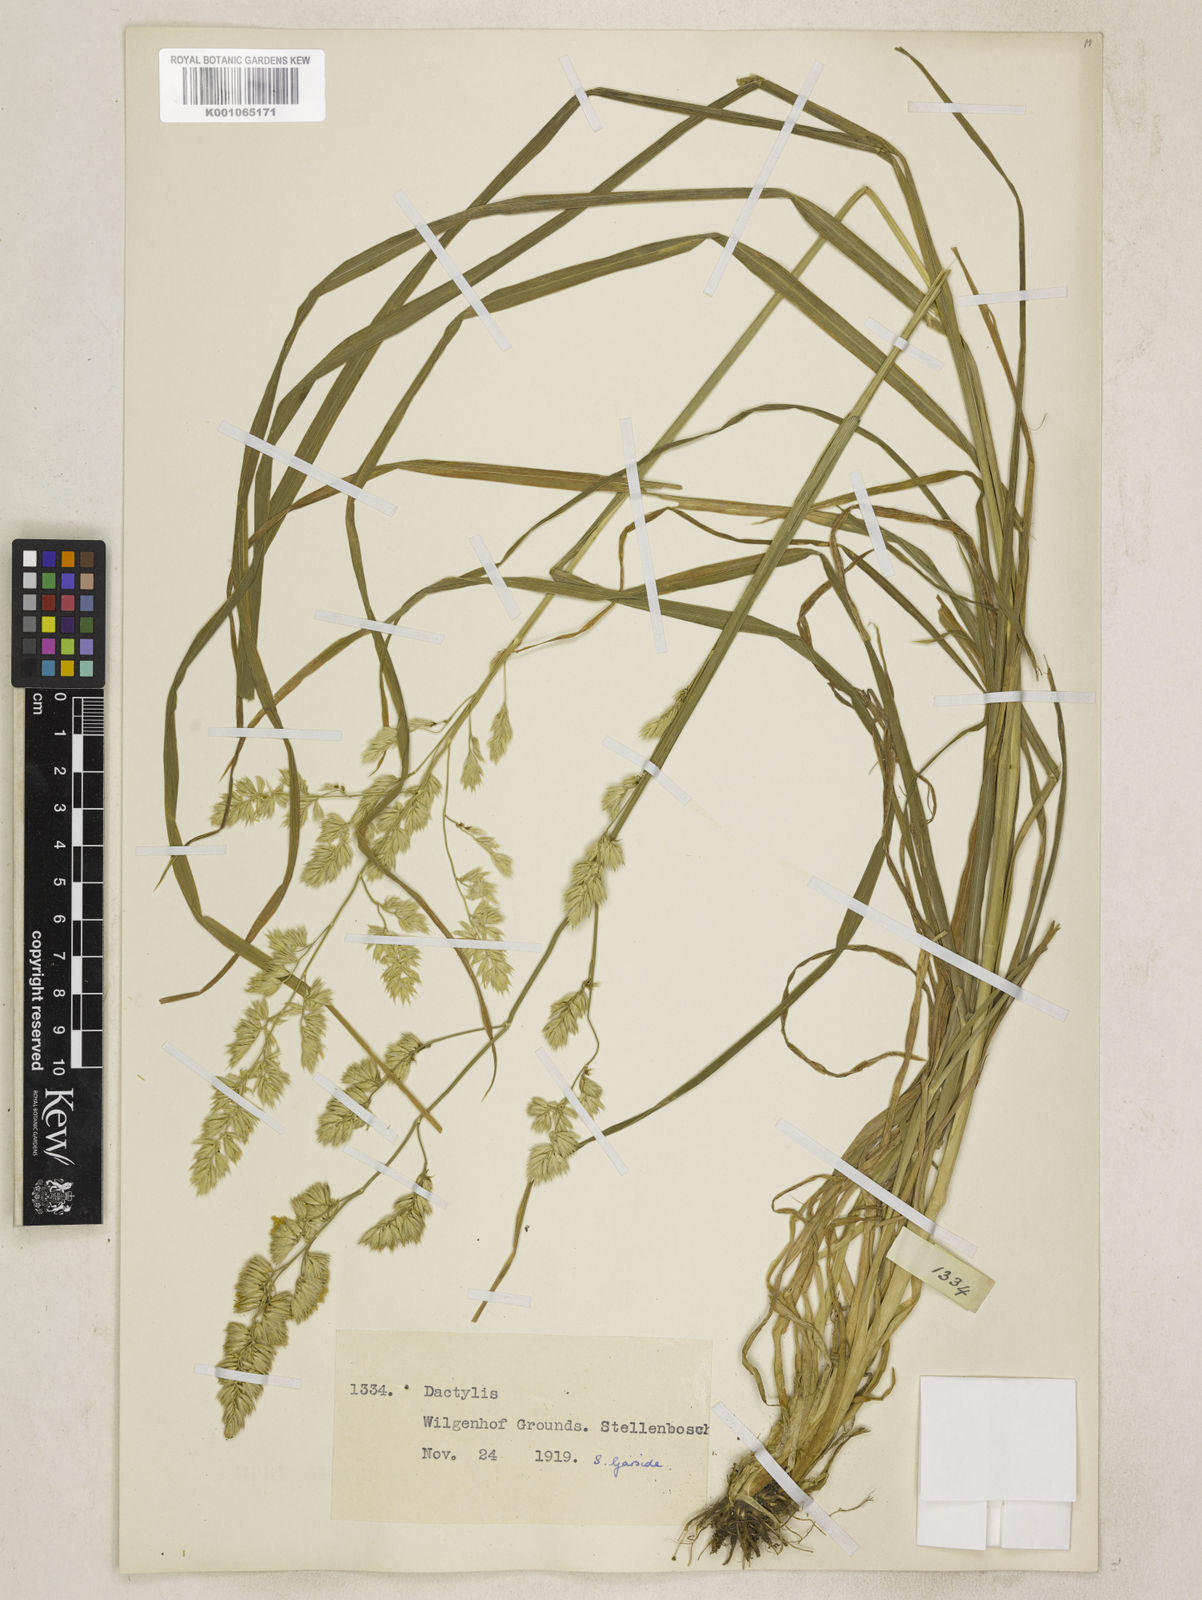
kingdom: Plantae
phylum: Tracheophyta
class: Liliopsida
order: Poales
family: Poaceae
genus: Dactylis
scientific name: Dactylis glomerata
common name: Orchardgrass
